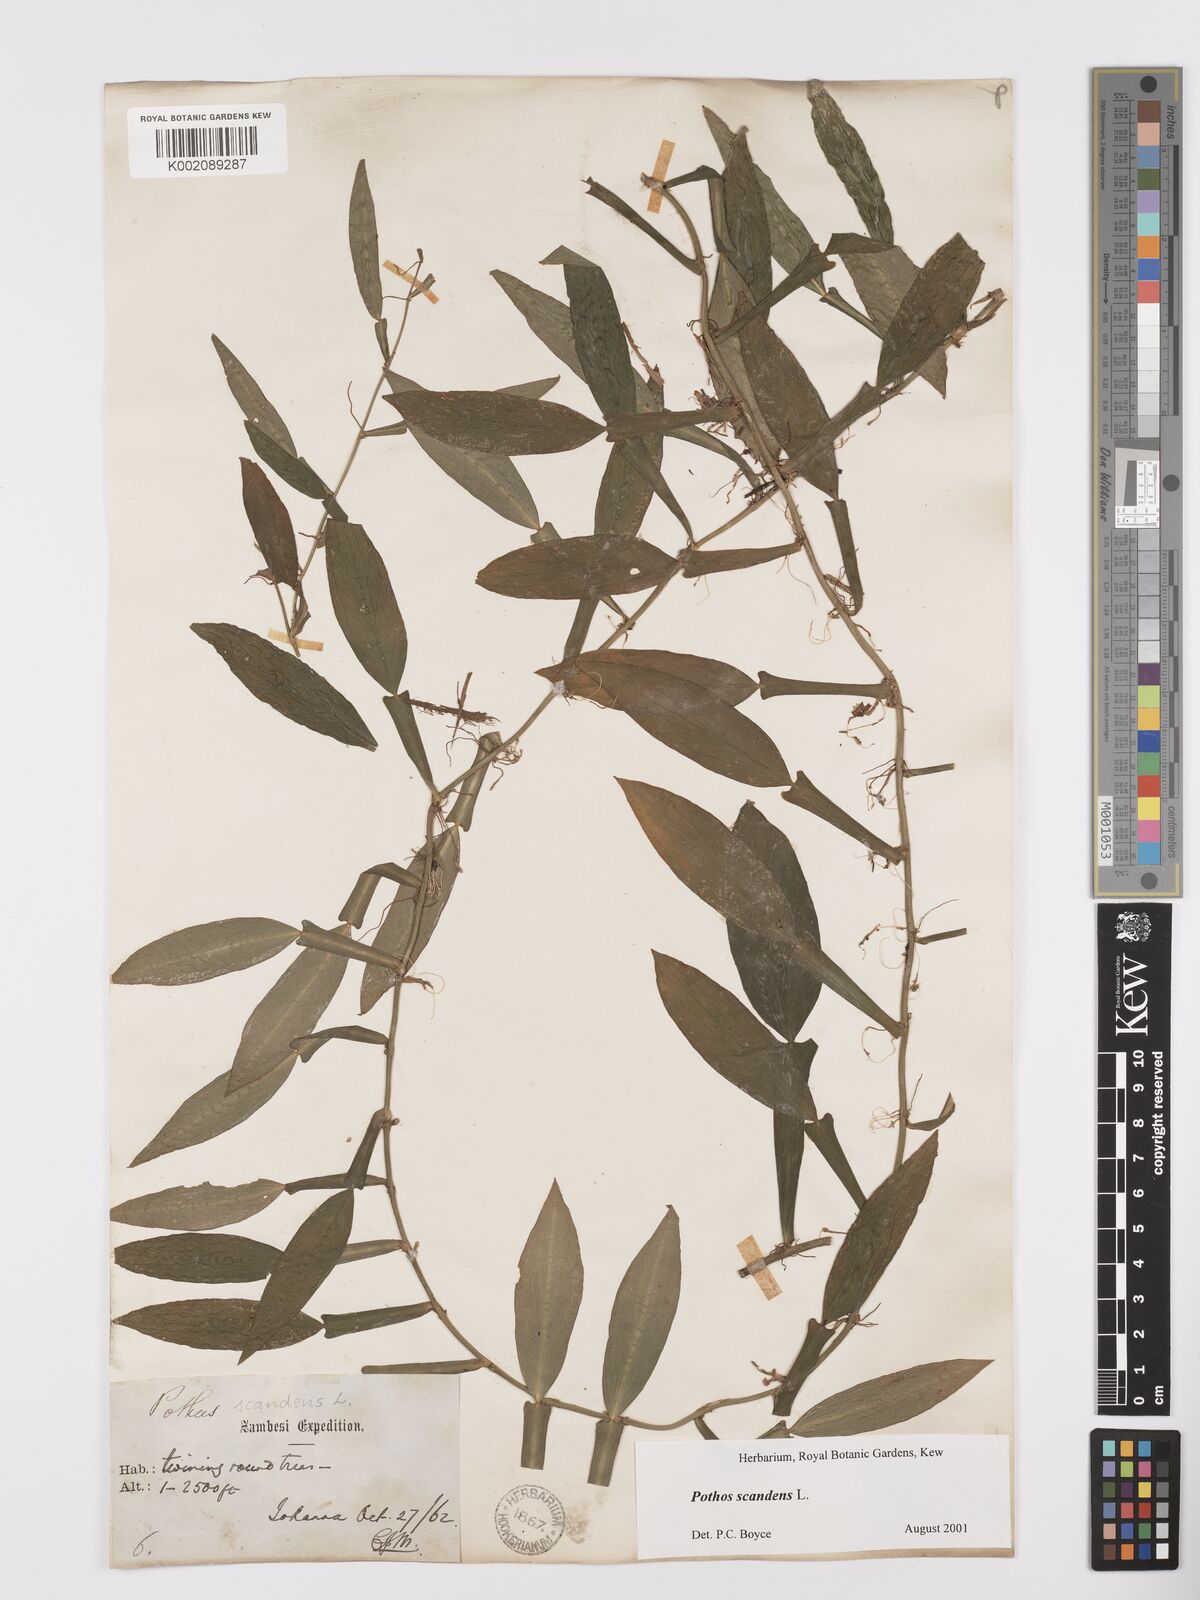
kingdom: Plantae
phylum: Tracheophyta
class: Liliopsida
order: Alismatales
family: Araceae
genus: Pothos
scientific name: Pothos scandens
